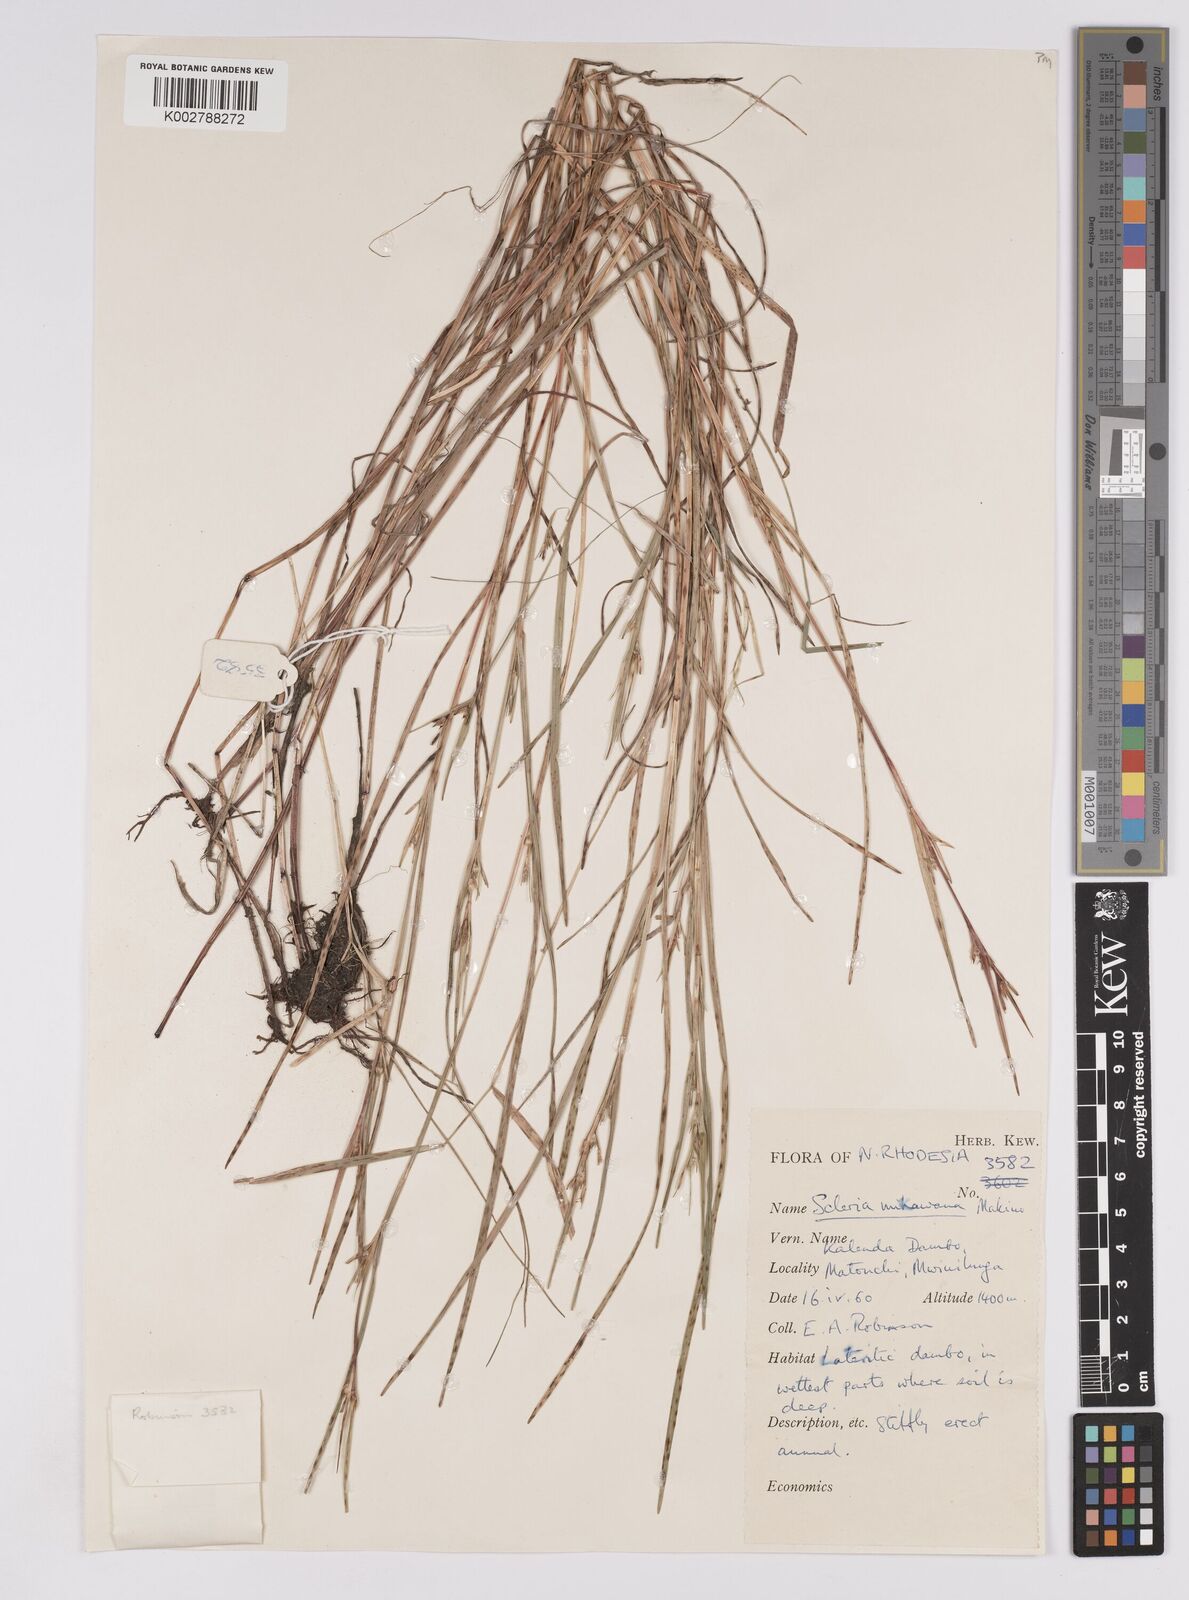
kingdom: Plantae
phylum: Tracheophyta
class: Liliopsida
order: Poales
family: Cyperaceae
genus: Scleria
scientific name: Scleria mikawana
